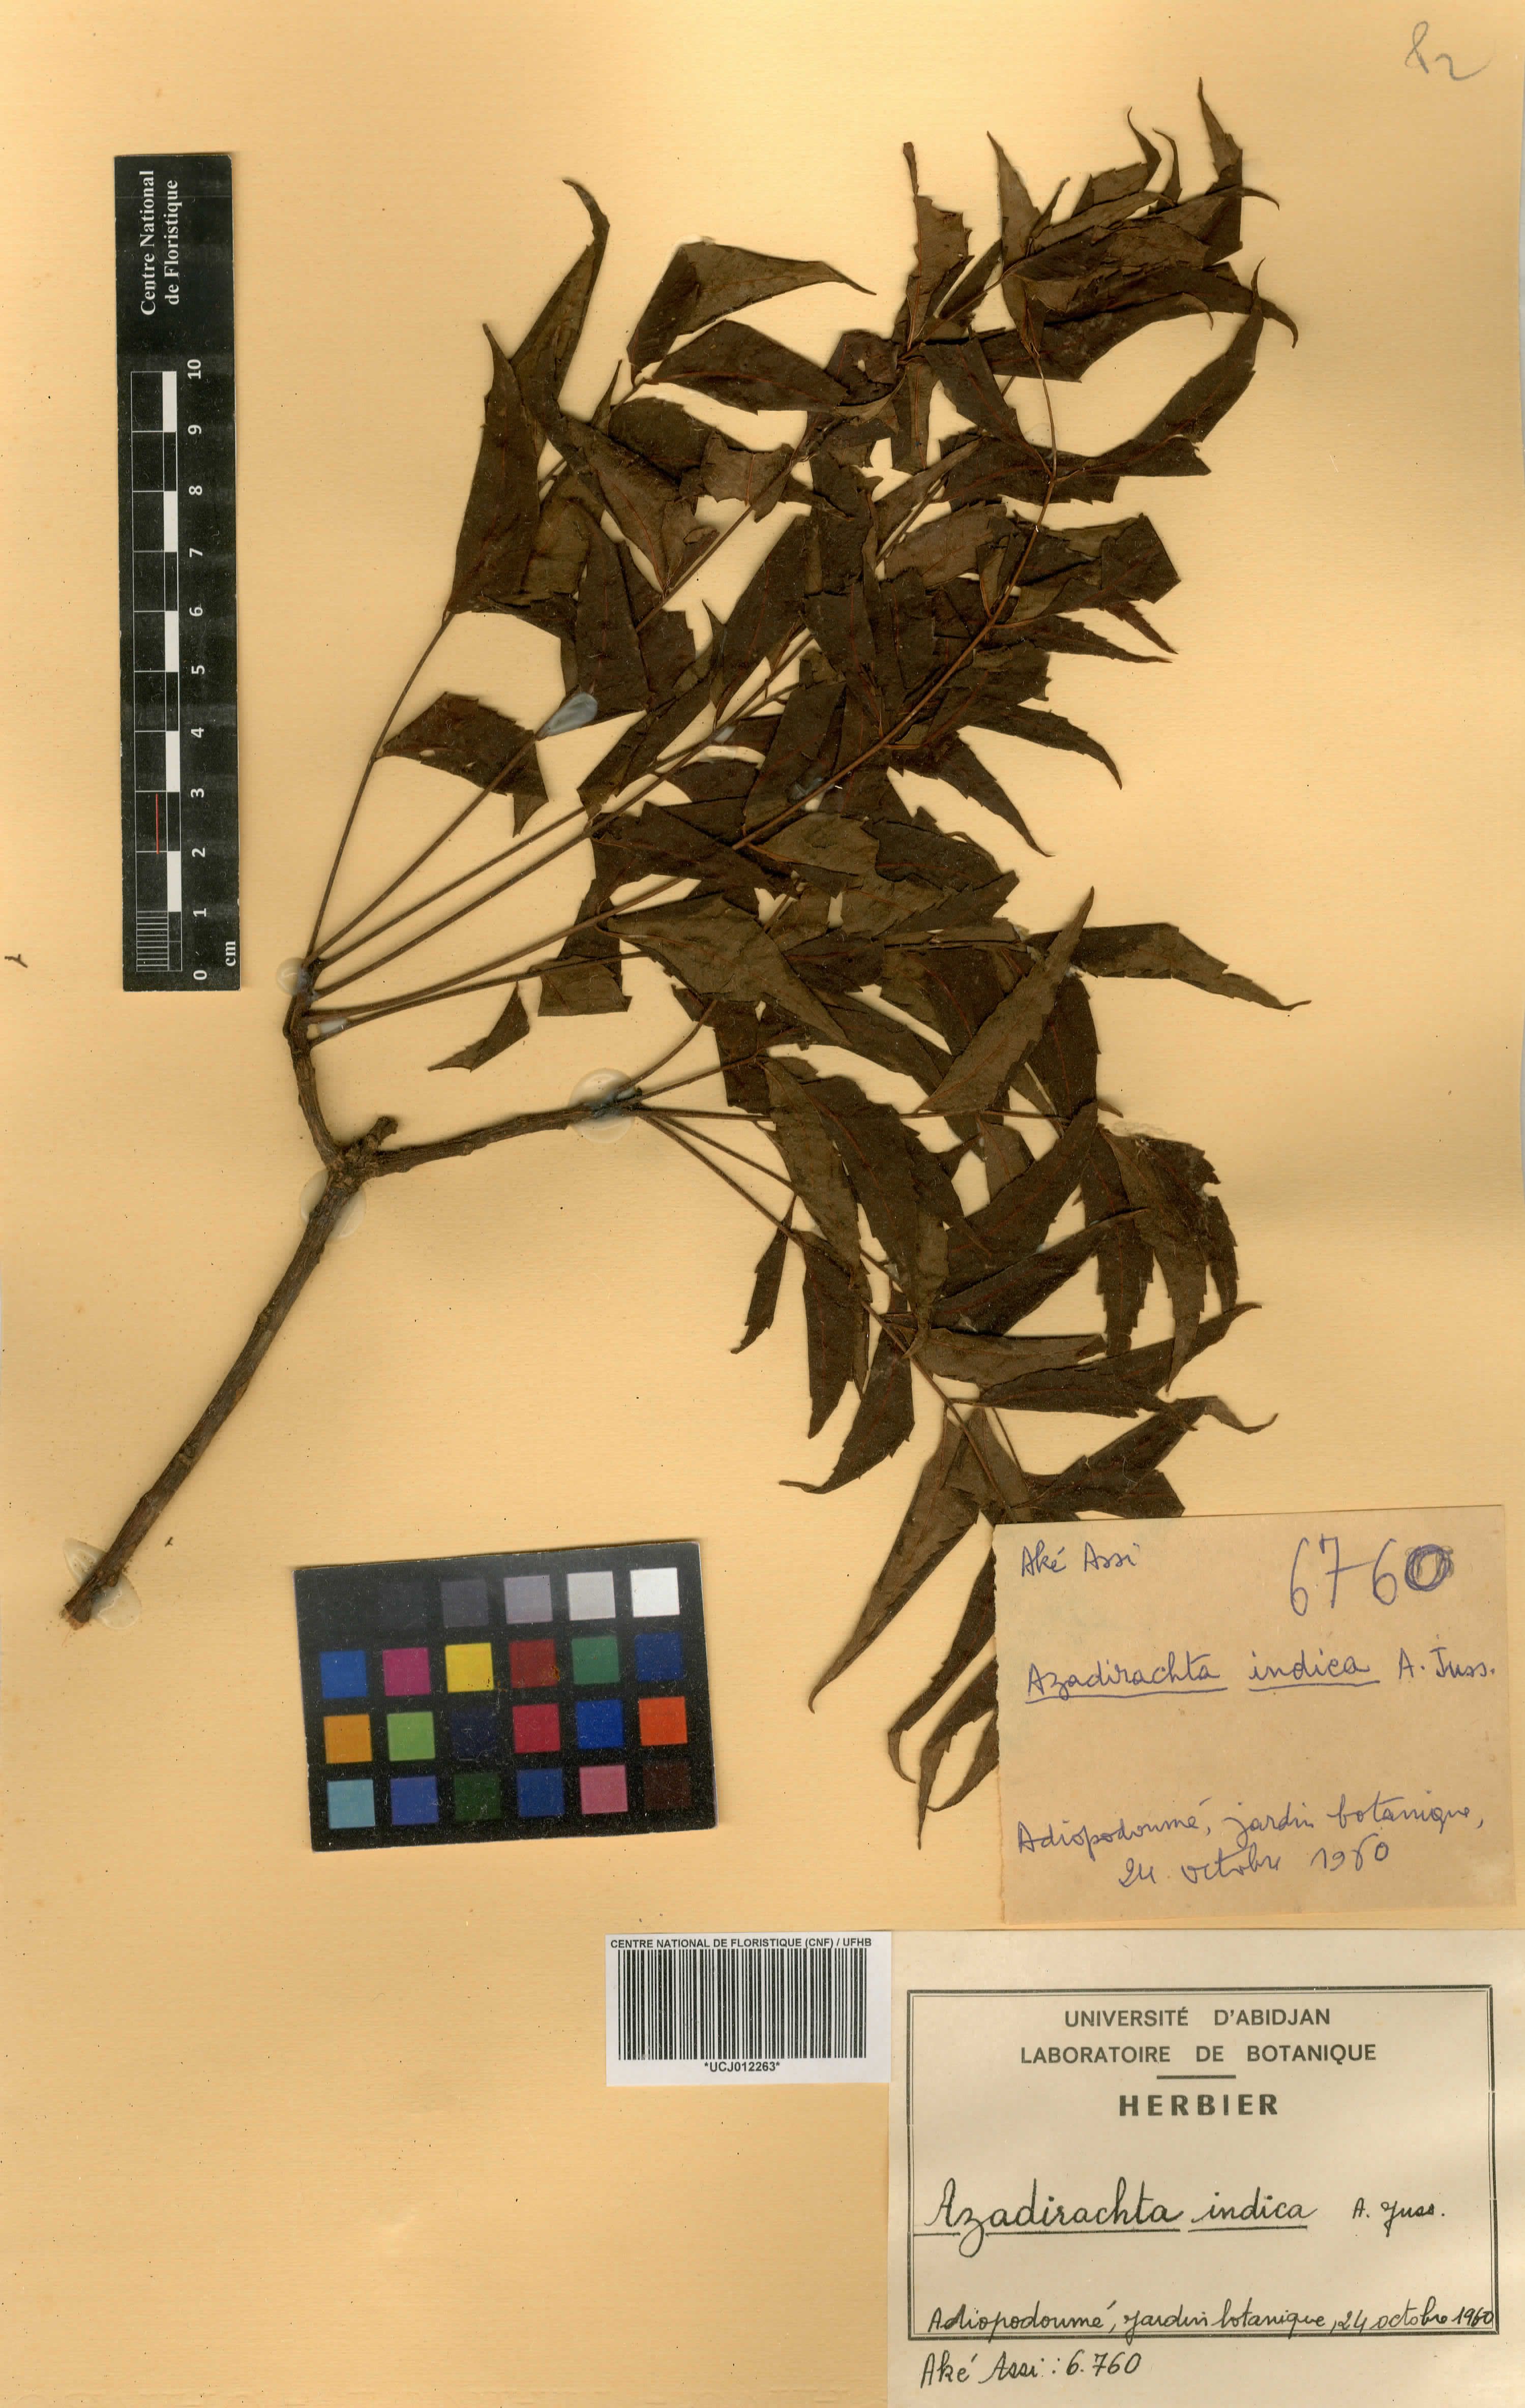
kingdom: Plantae
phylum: Tracheophyta
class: Magnoliopsida
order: Sapindales
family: Meliaceae
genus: Azadirachta
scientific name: Azadirachta indica
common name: Neem
